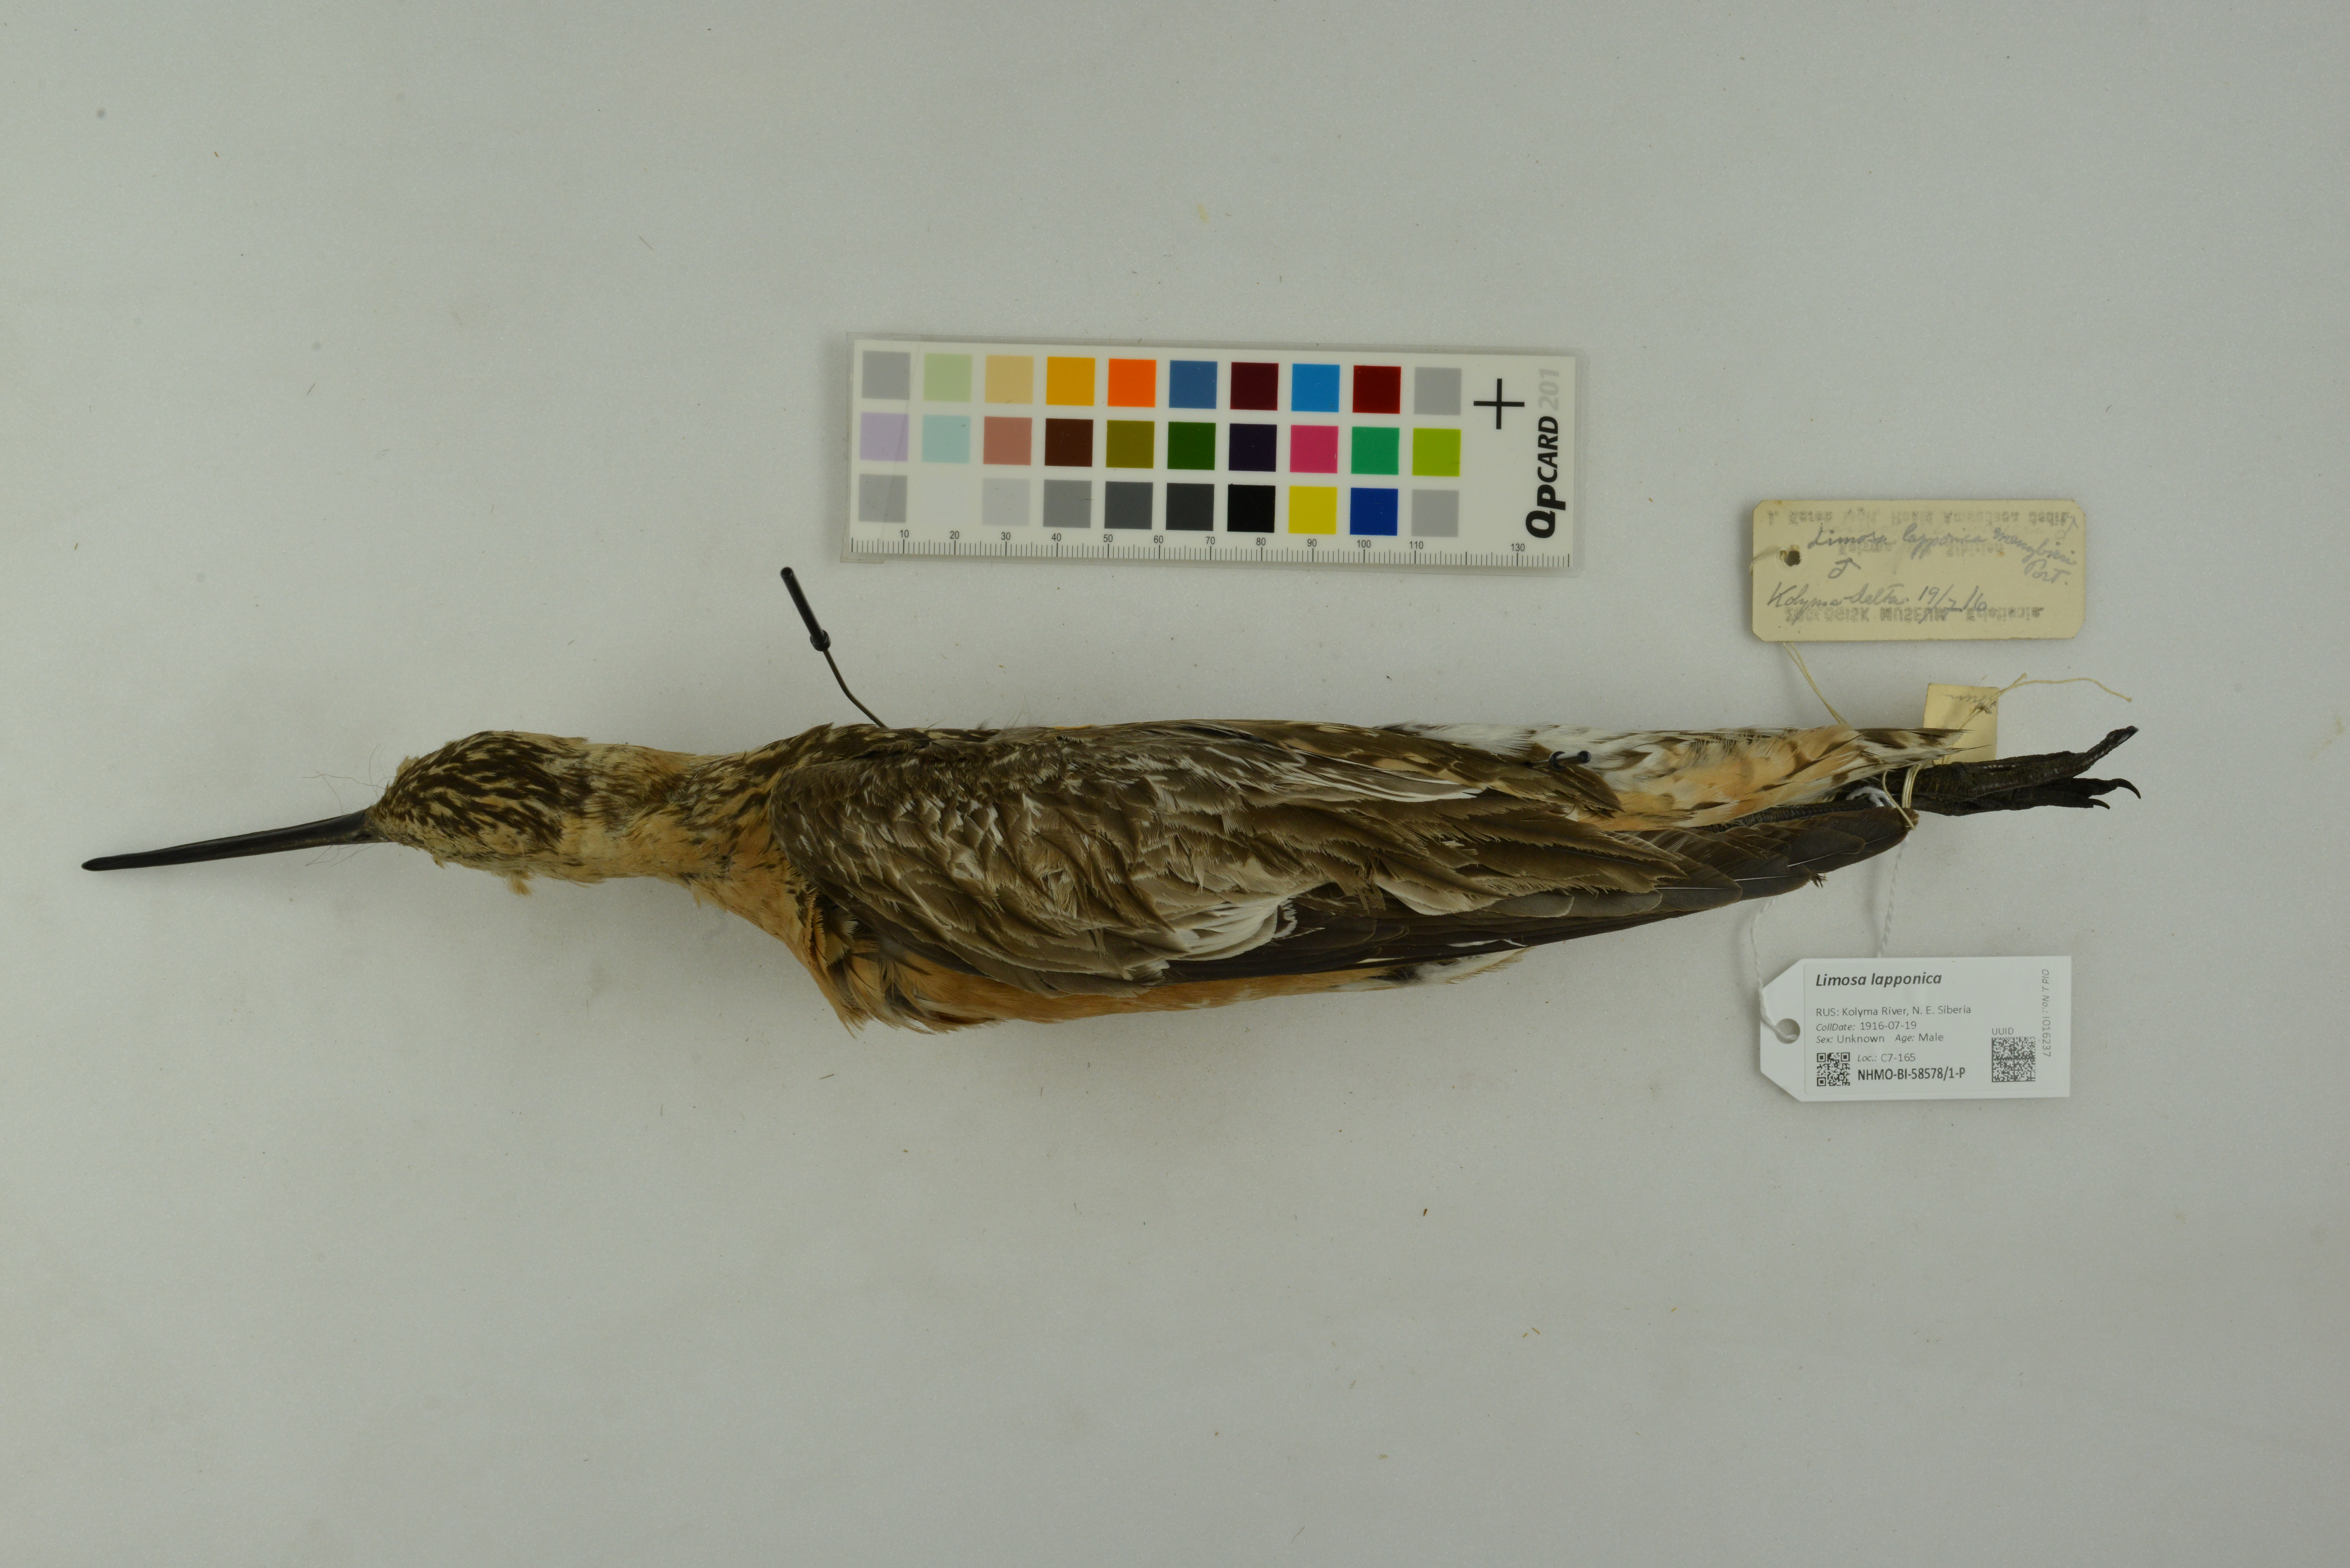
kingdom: Animalia
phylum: Chordata
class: Aves
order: Charadriiformes
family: Scolopacidae
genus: Limosa
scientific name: Limosa lapponica
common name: Bar-tailed godwit
